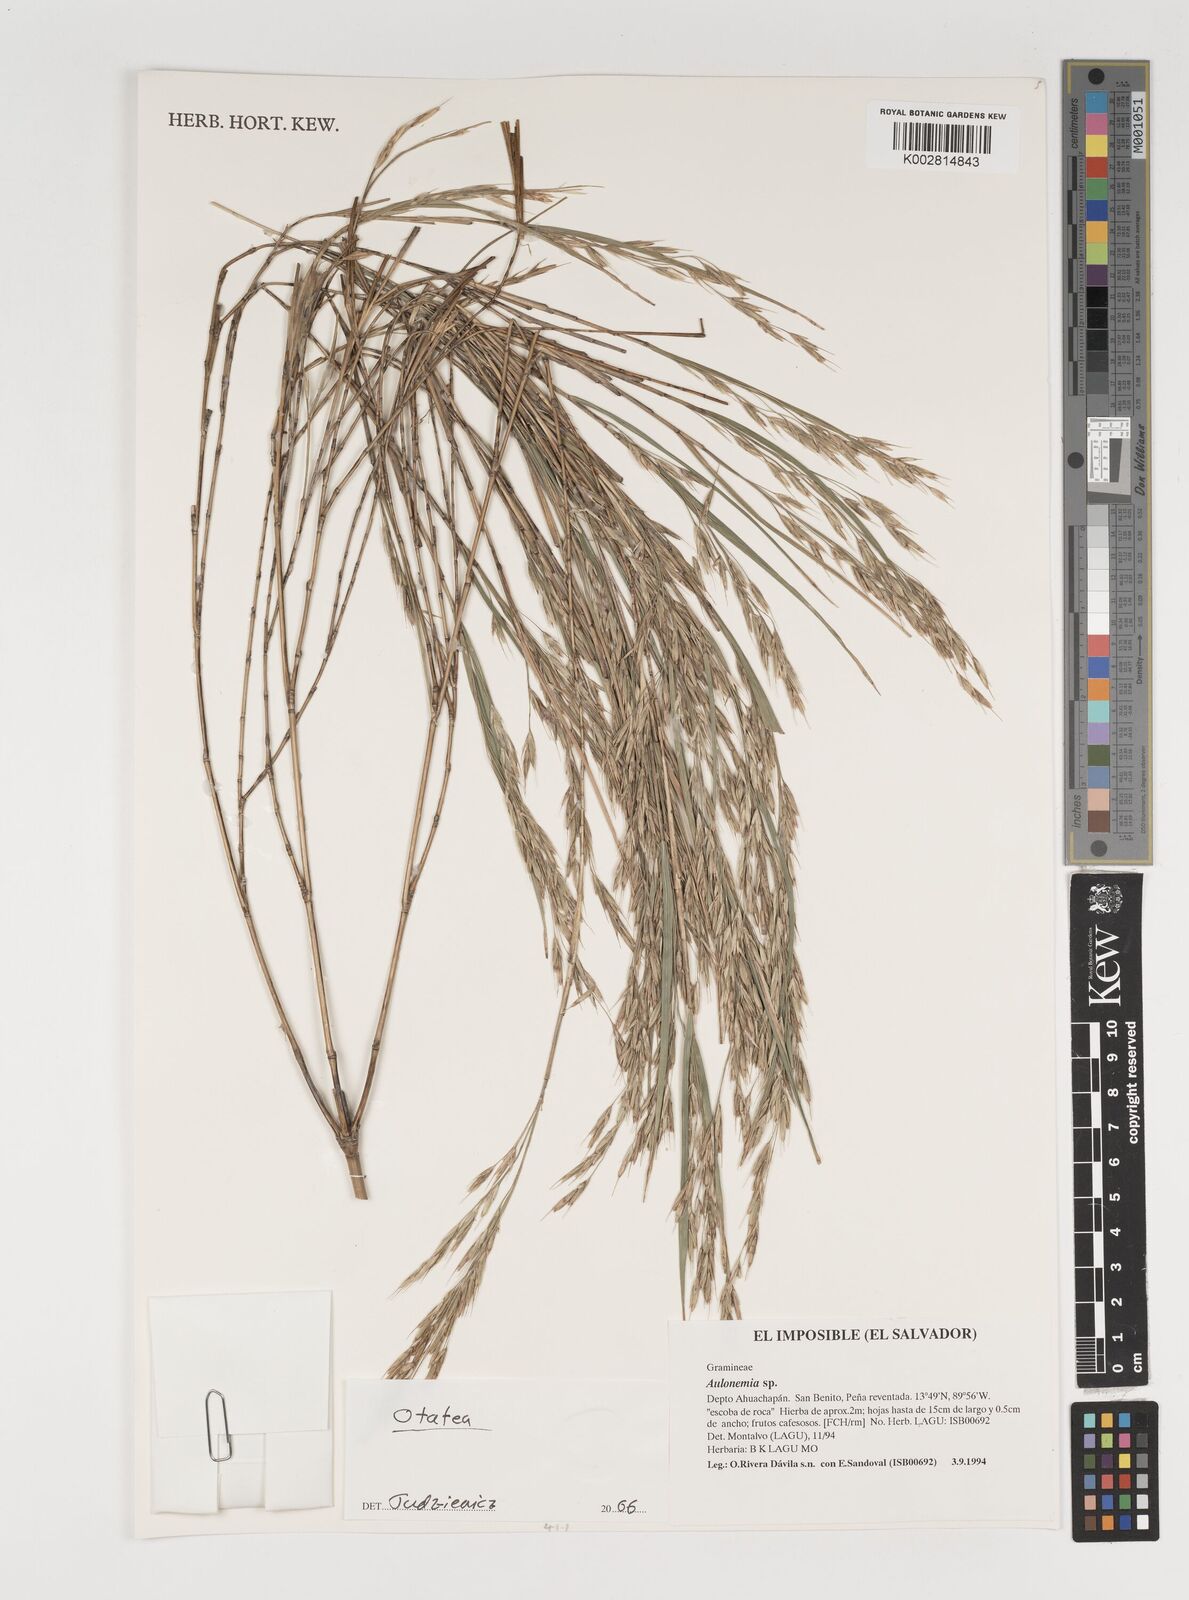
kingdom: Plantae
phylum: Tracheophyta
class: Liliopsida
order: Poales
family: Poaceae
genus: Olmeca
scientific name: Olmeca
